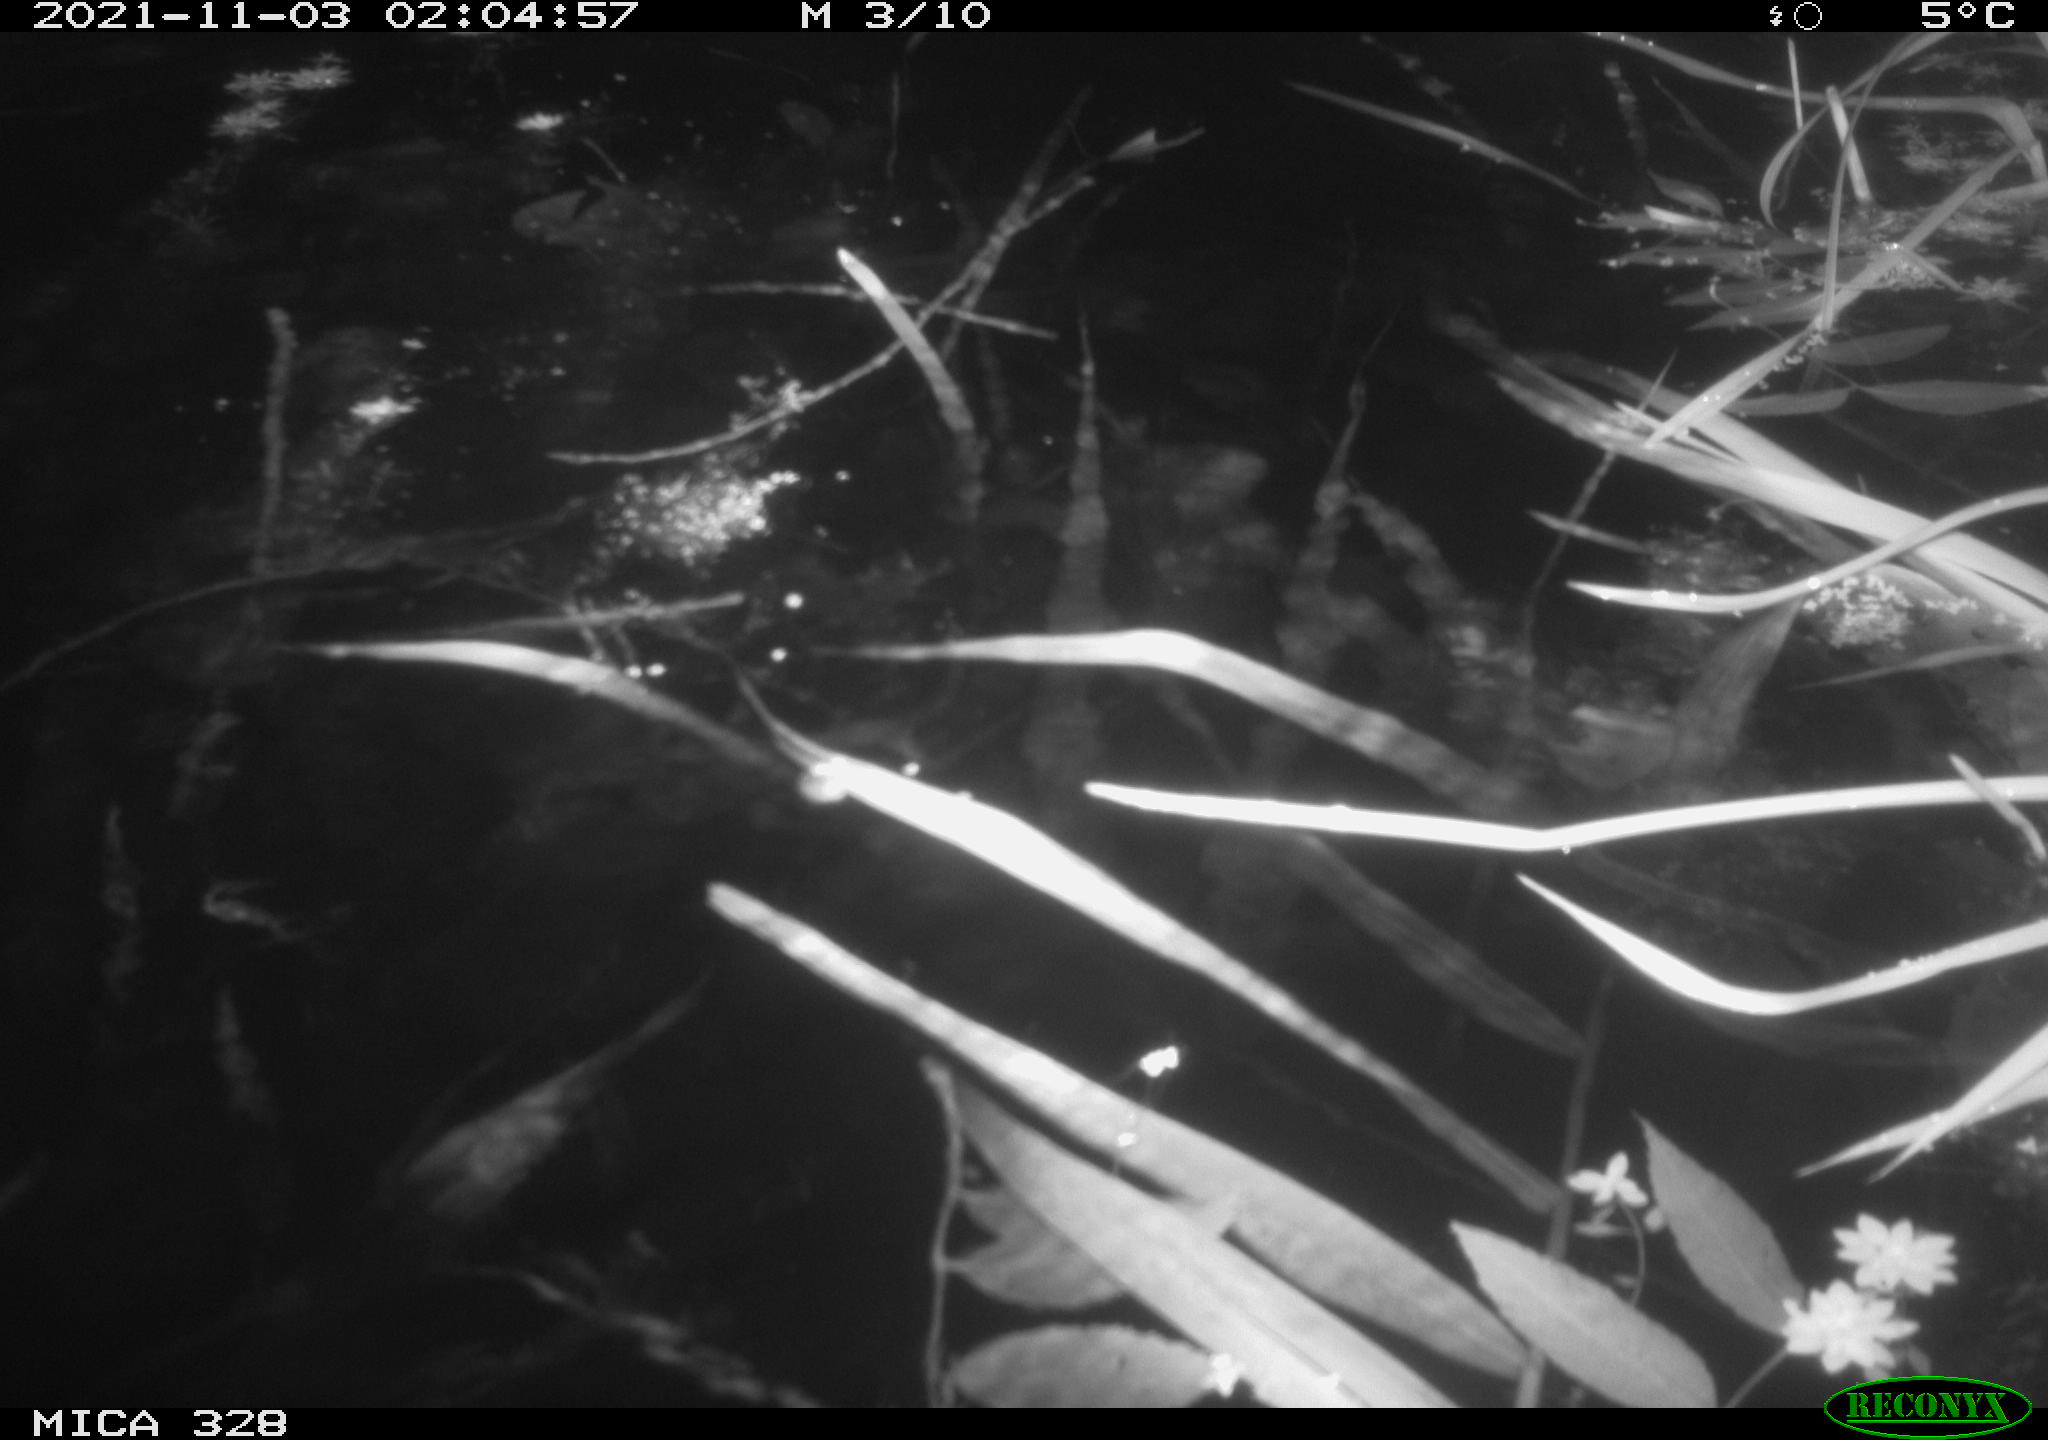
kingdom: Animalia
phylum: Chordata
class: Mammalia
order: Rodentia
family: Cricetidae
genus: Ondatra
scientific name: Ondatra zibethicus
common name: Muskrat
